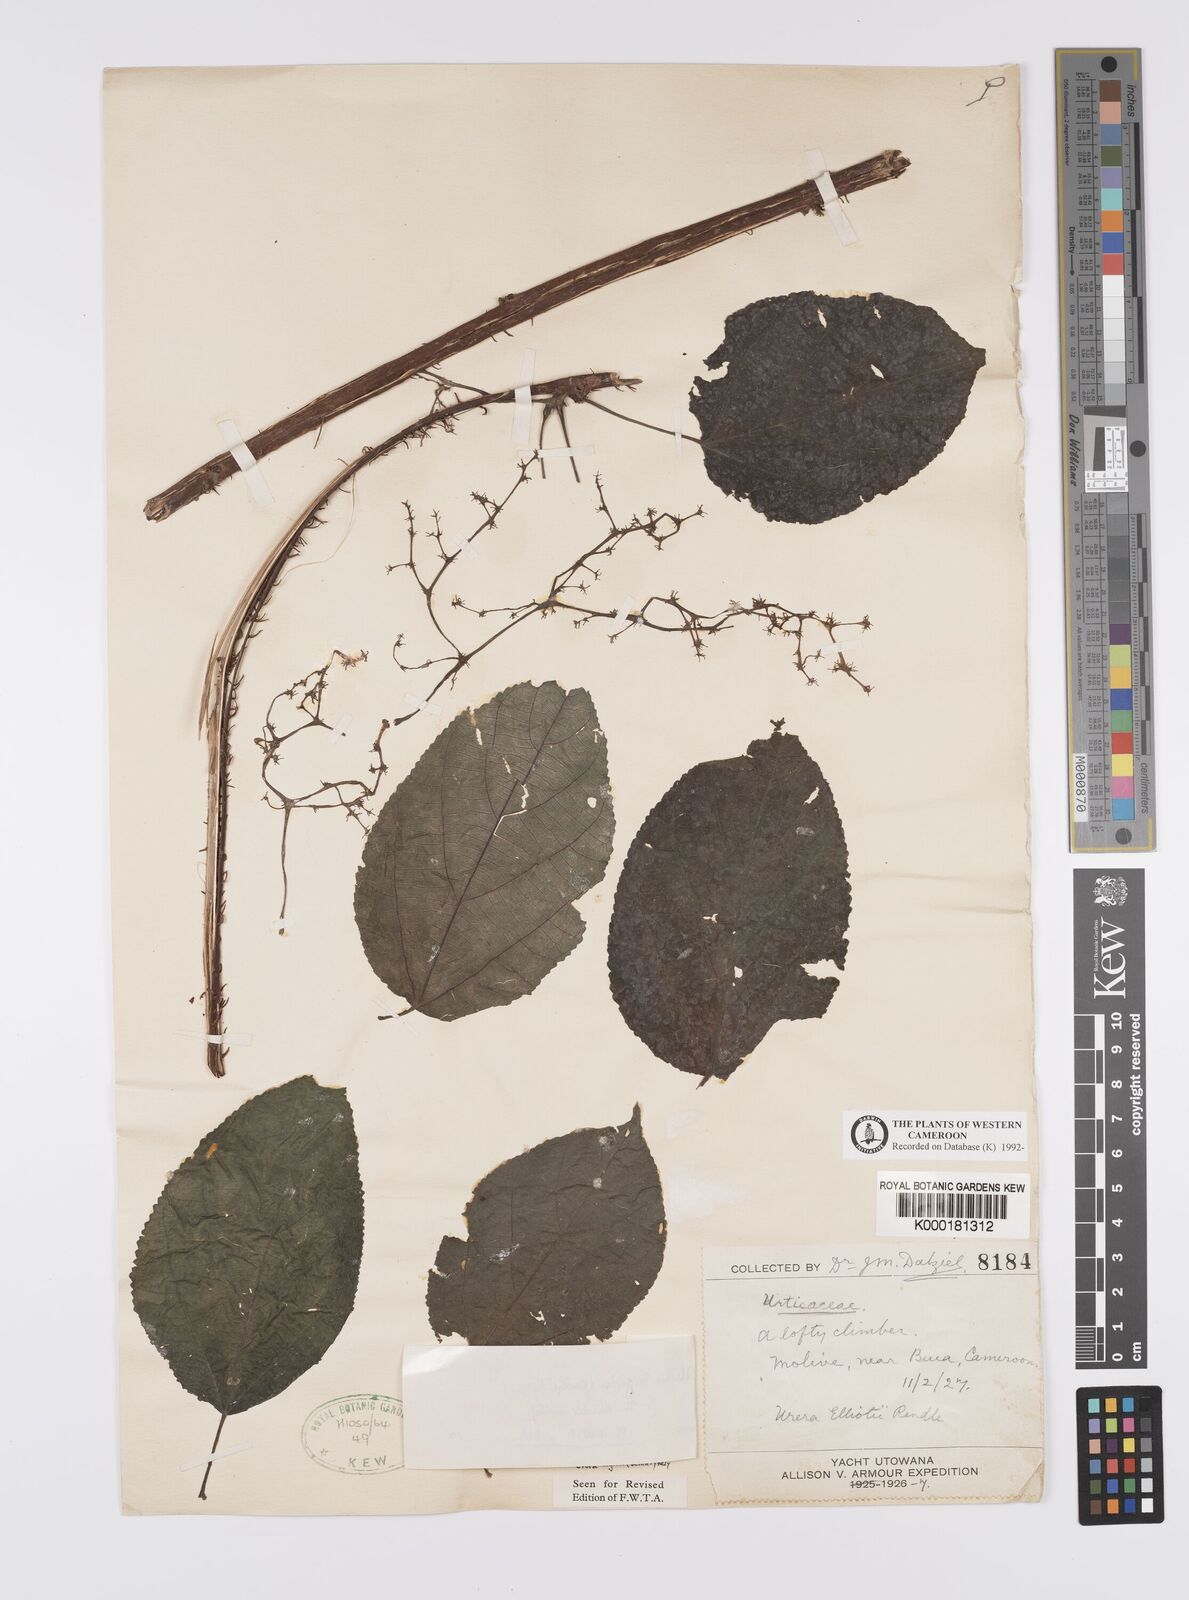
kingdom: Plantae
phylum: Tracheophyta
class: Magnoliopsida
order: Rosales
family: Urticaceae
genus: Scepocarpus
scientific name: Scepocarpus rigidus
